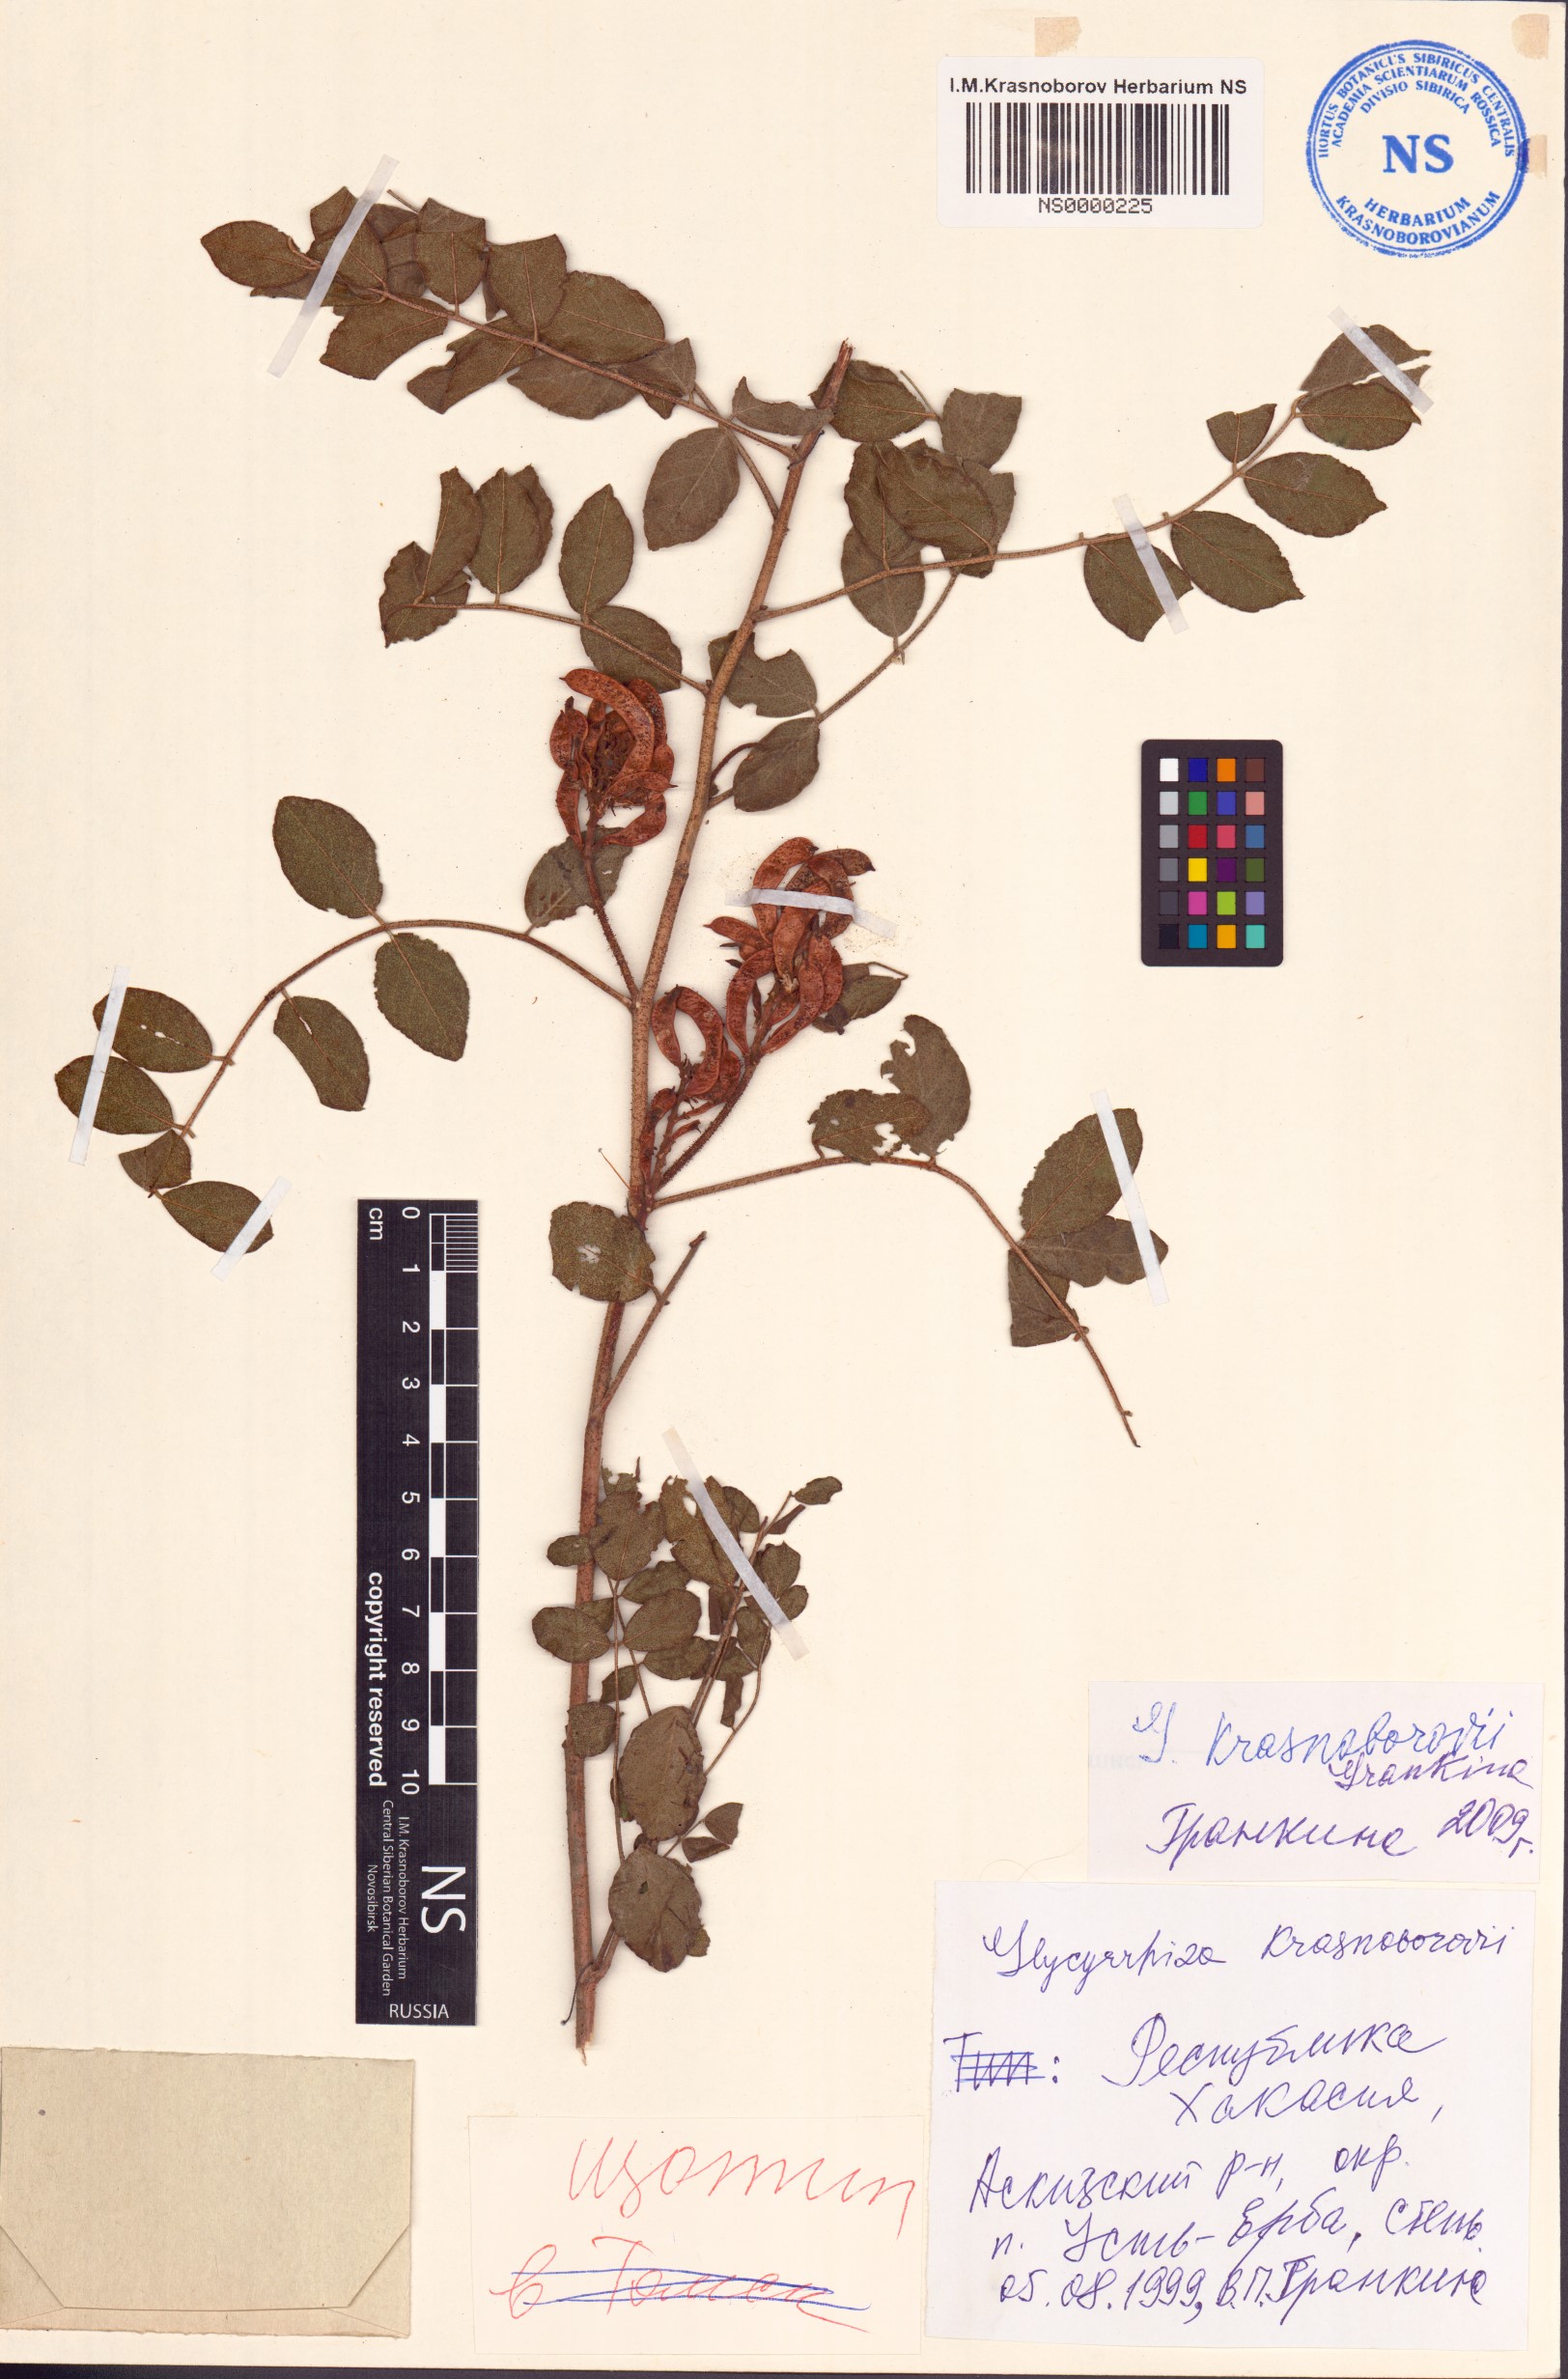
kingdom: Plantae
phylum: Tracheophyta
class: Magnoliopsida
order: Fabales
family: Fabaceae
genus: Glycyrrhiza
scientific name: Glycyrrhiza uralensis
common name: Chinese licorice
